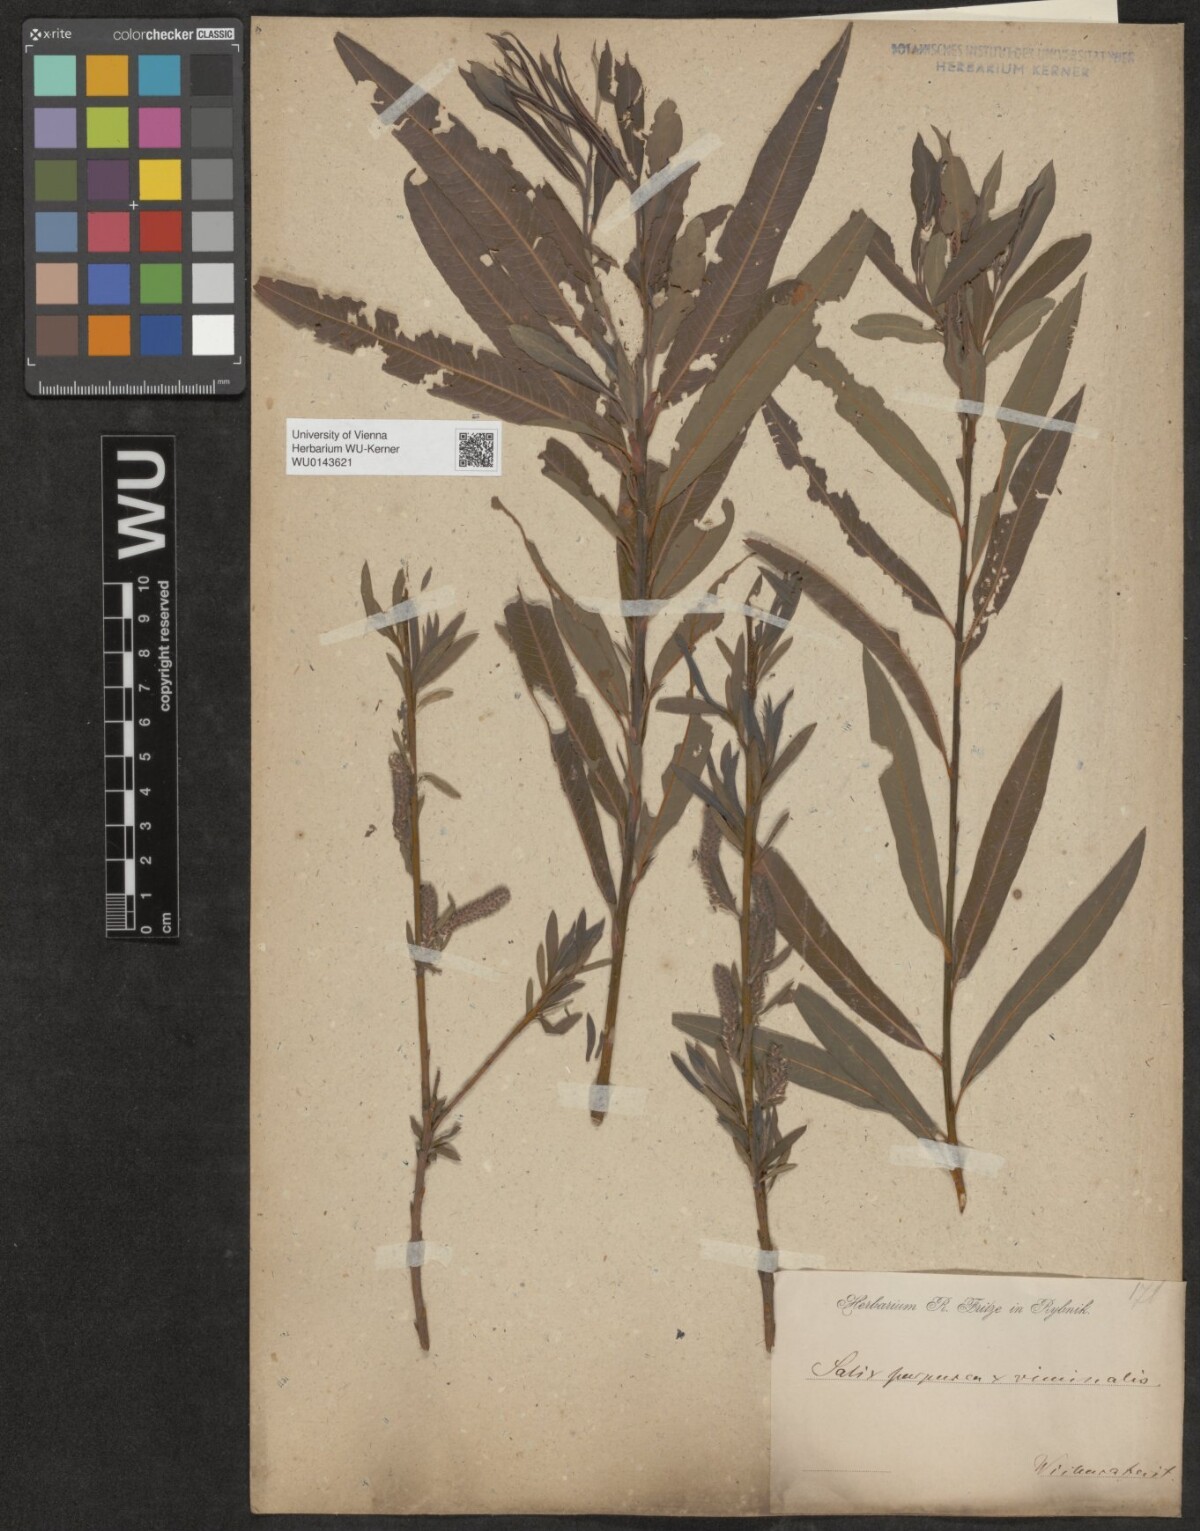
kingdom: Plantae
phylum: Tracheophyta
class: Magnoliopsida
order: Malpighiales
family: Salicaceae
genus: Salix
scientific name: Salix
